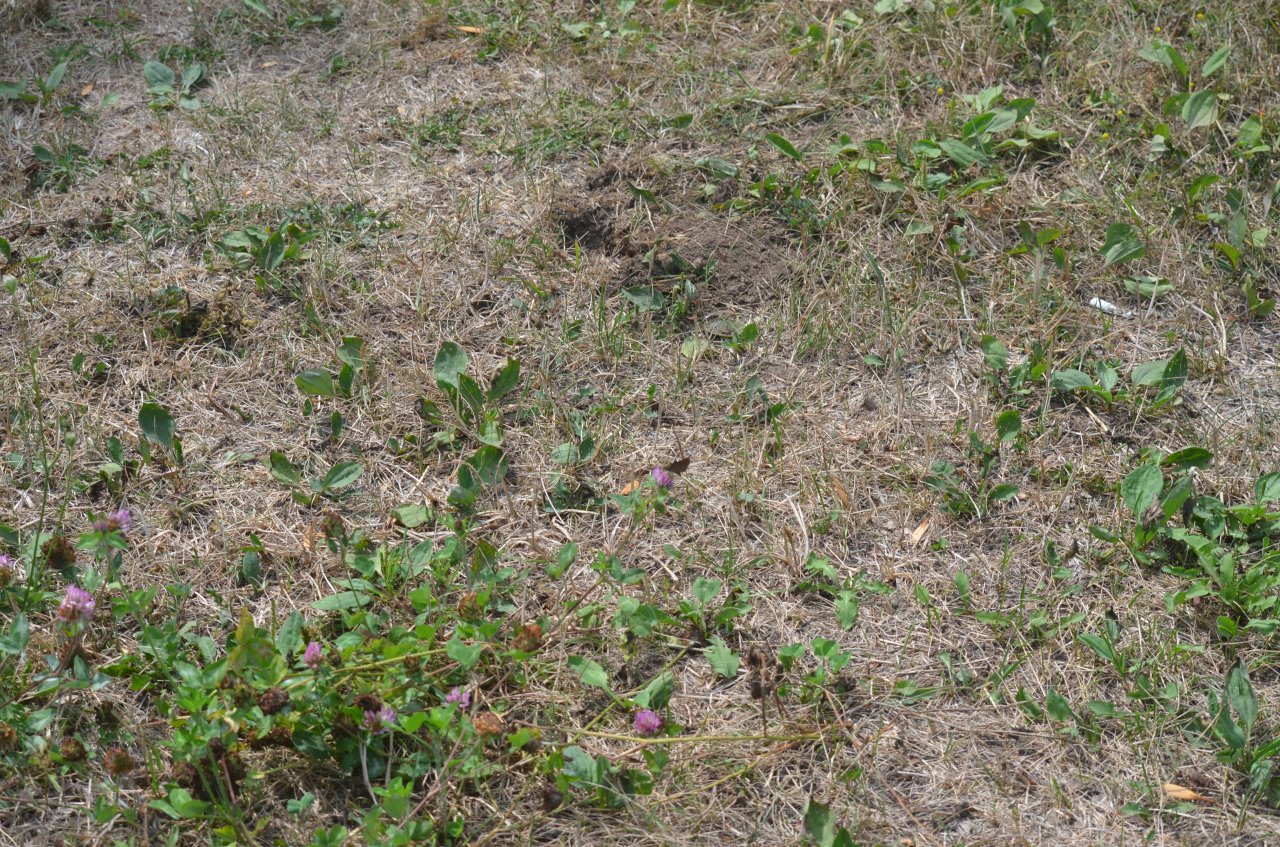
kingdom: Animalia
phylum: Arthropoda
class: Insecta
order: Lepidoptera
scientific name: Lepidoptera
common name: Butterflies
